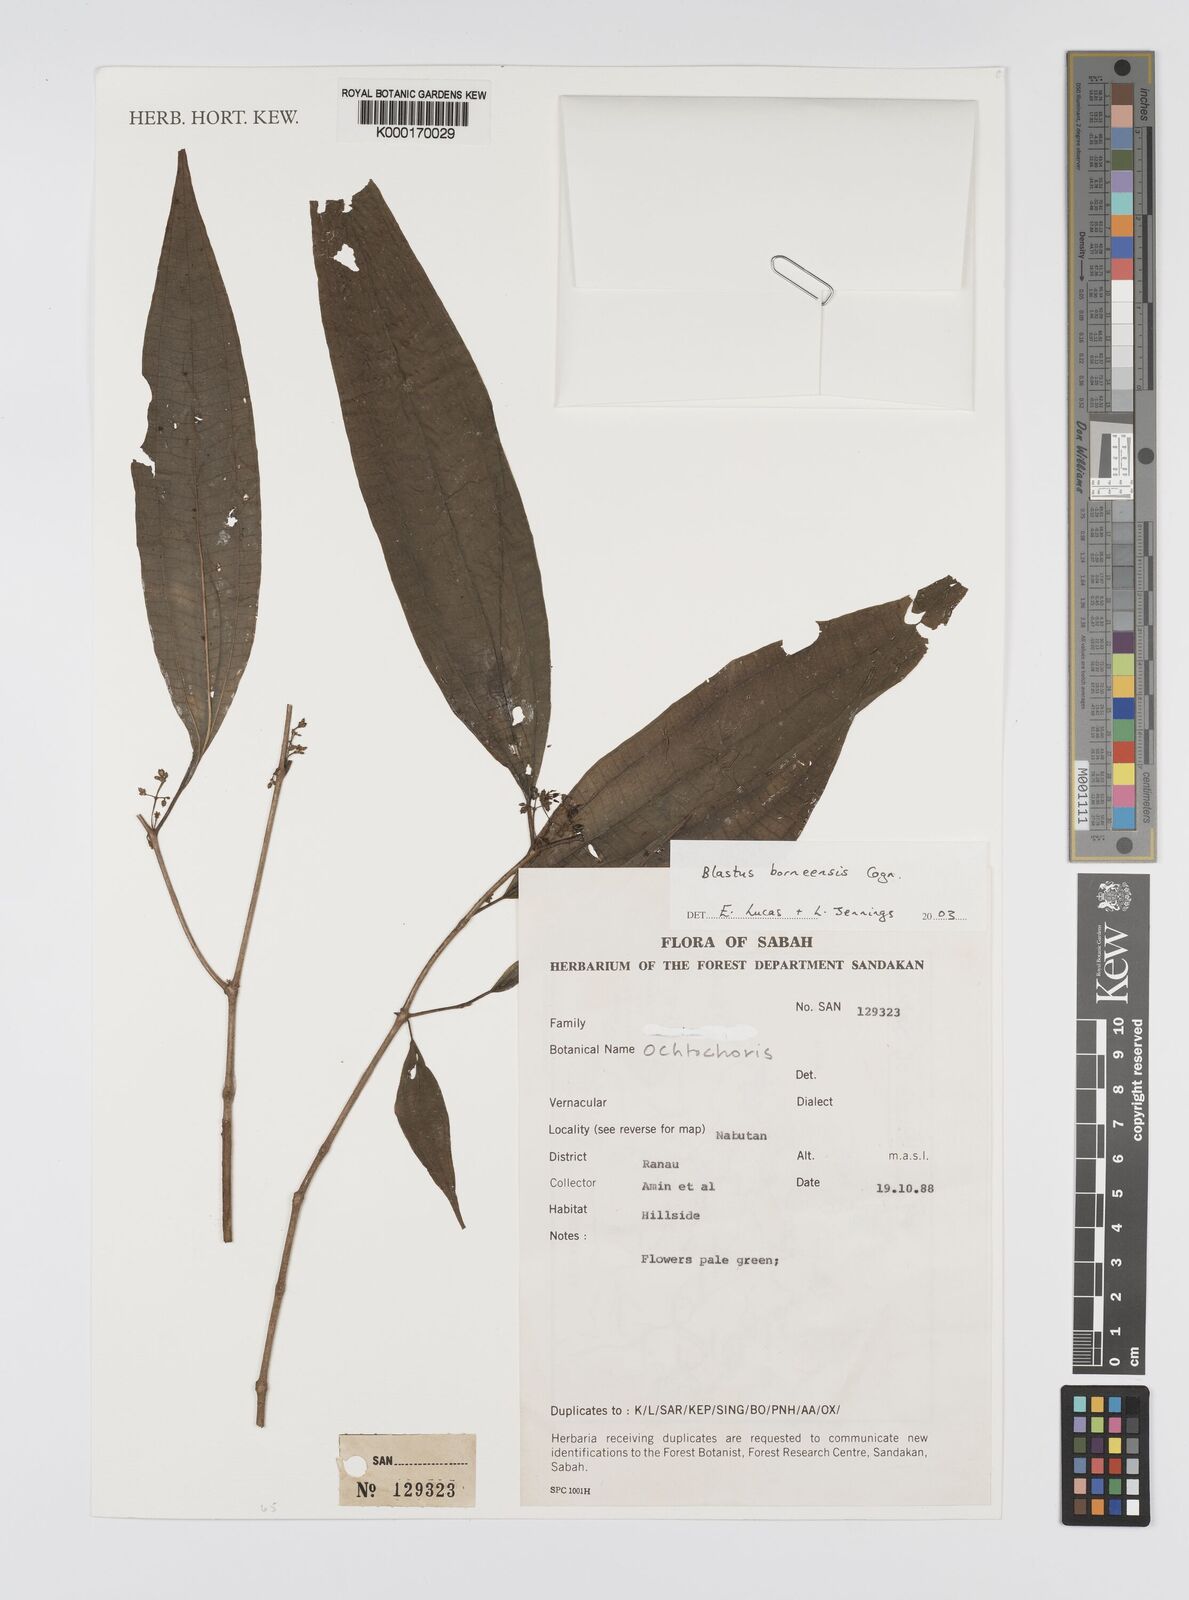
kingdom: Plantae
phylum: Tracheophyta
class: Magnoliopsida
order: Myrtales
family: Melastomataceae
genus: Blastus
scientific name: Blastus
